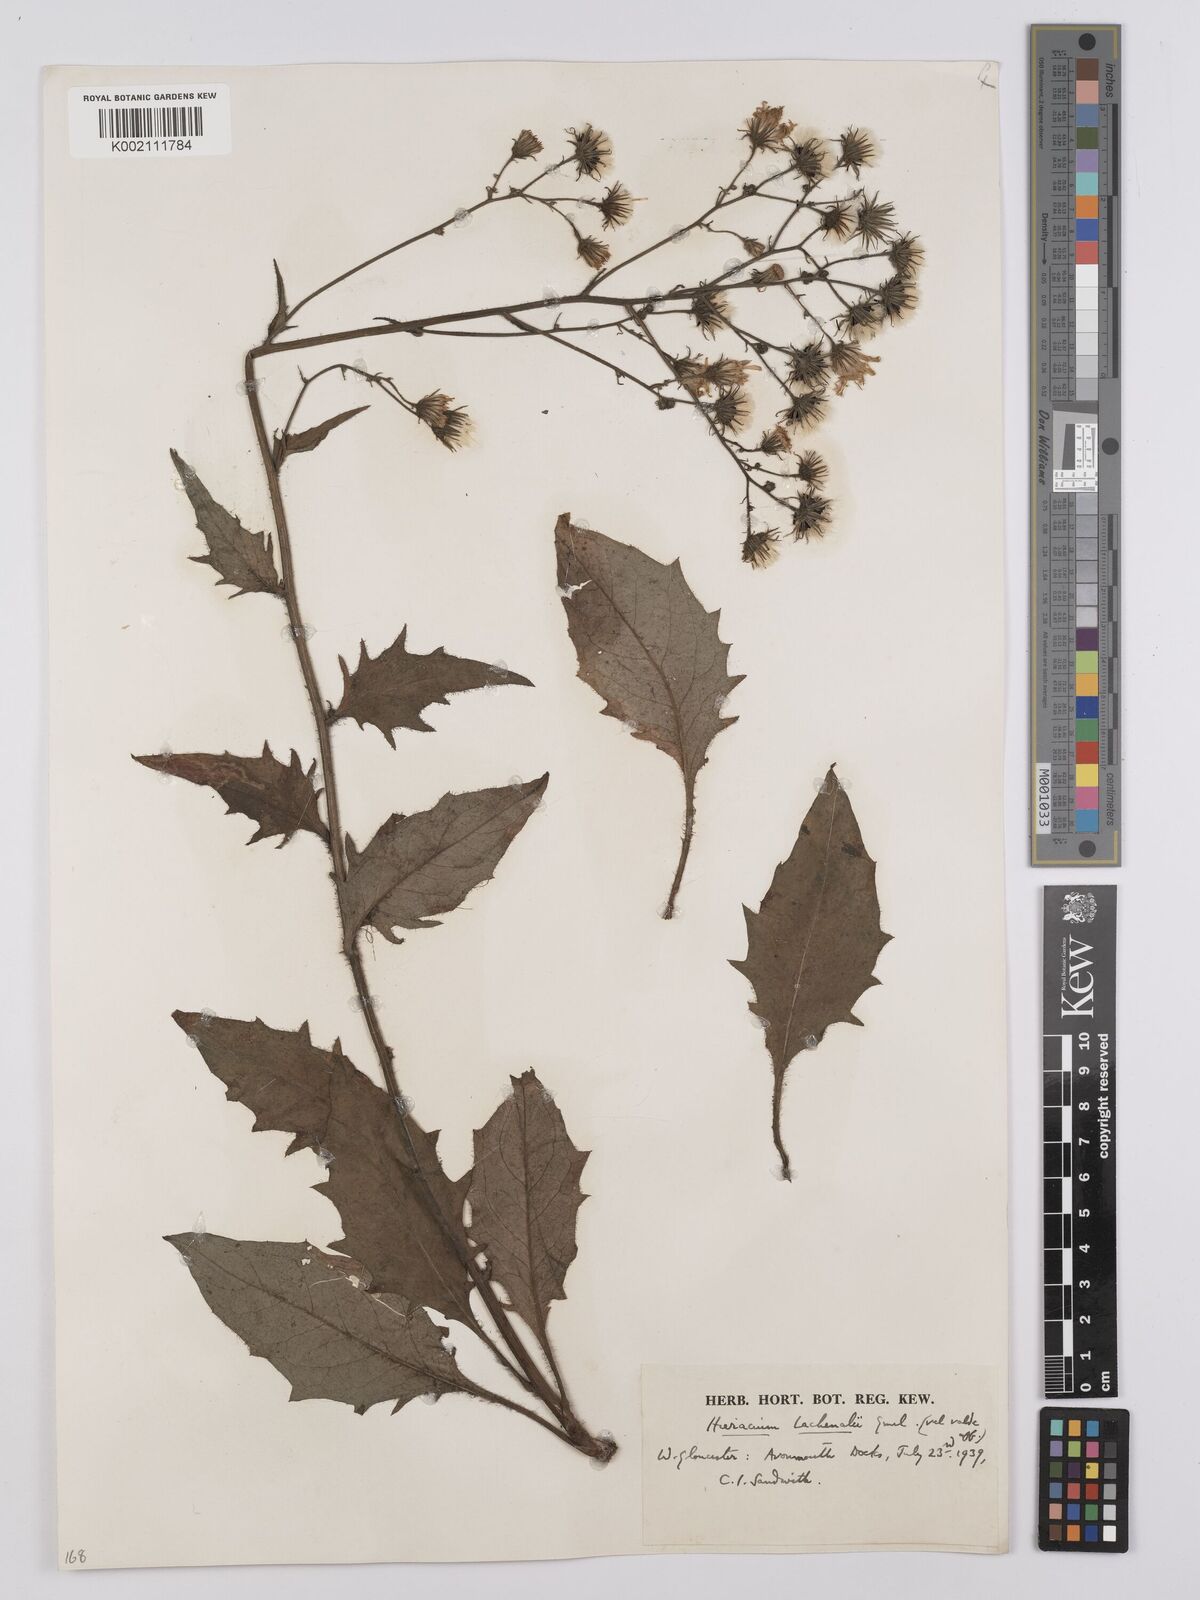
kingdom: Plantae
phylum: Tracheophyta
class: Magnoliopsida
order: Asterales
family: Asteraceae
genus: Hieracium
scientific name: Hieracium lachenalii
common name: Common hawkweed
